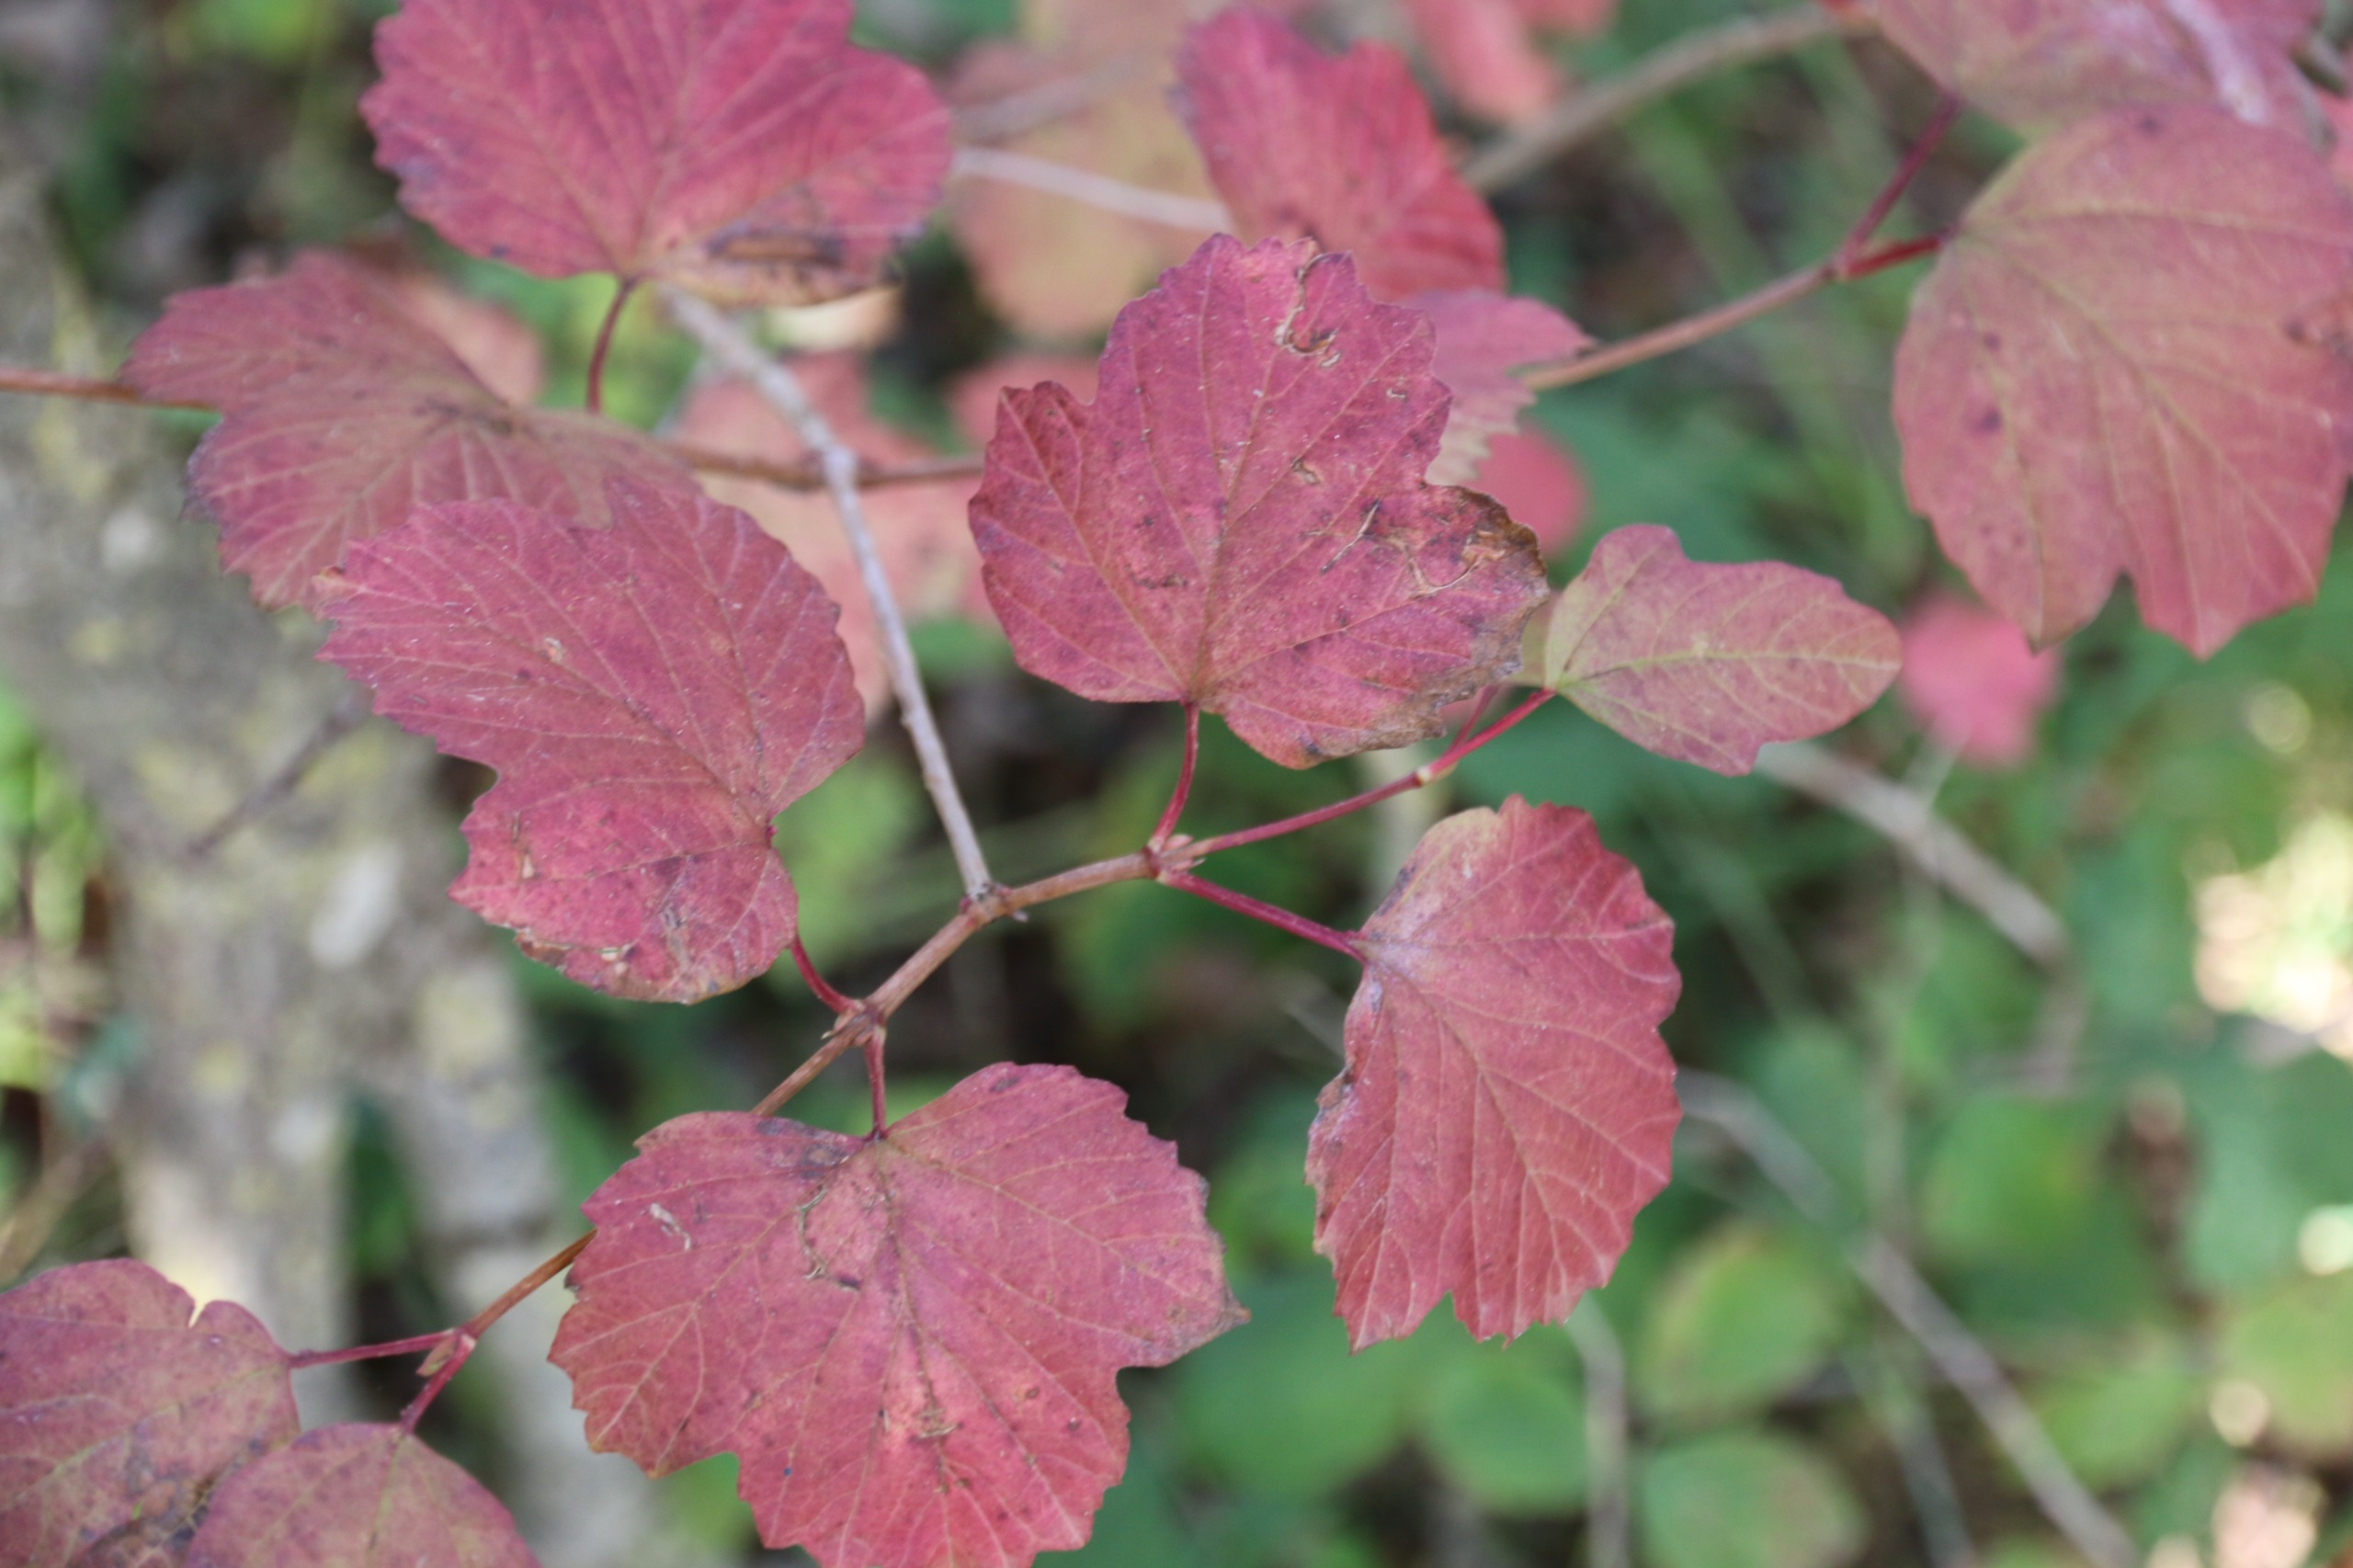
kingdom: Plantae
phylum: Tracheophyta
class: Magnoliopsida
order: Dipsacales
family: Viburnaceae
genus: Viburnum
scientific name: Viburnum opulus
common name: Kvalkved
